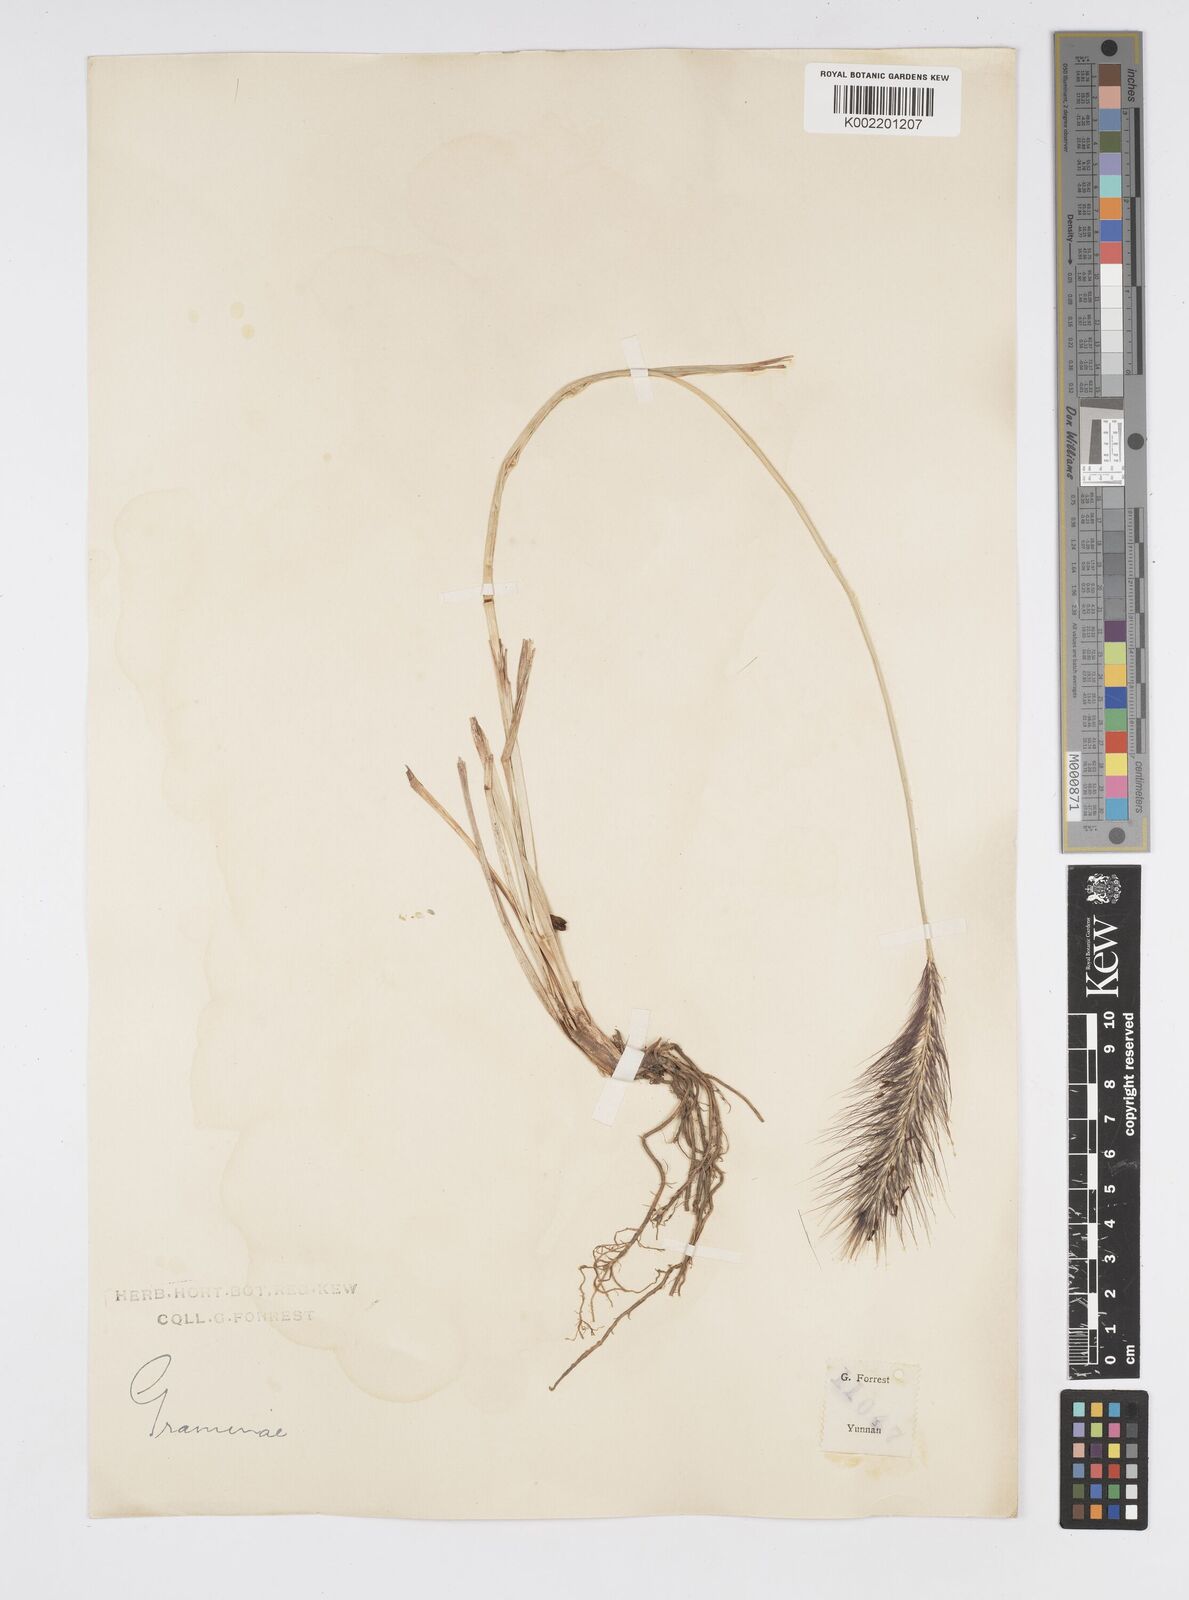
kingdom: Plantae
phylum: Tracheophyta
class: Liliopsida
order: Poales
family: Poaceae
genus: Cenchrus
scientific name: Cenchrus alopecuroides
